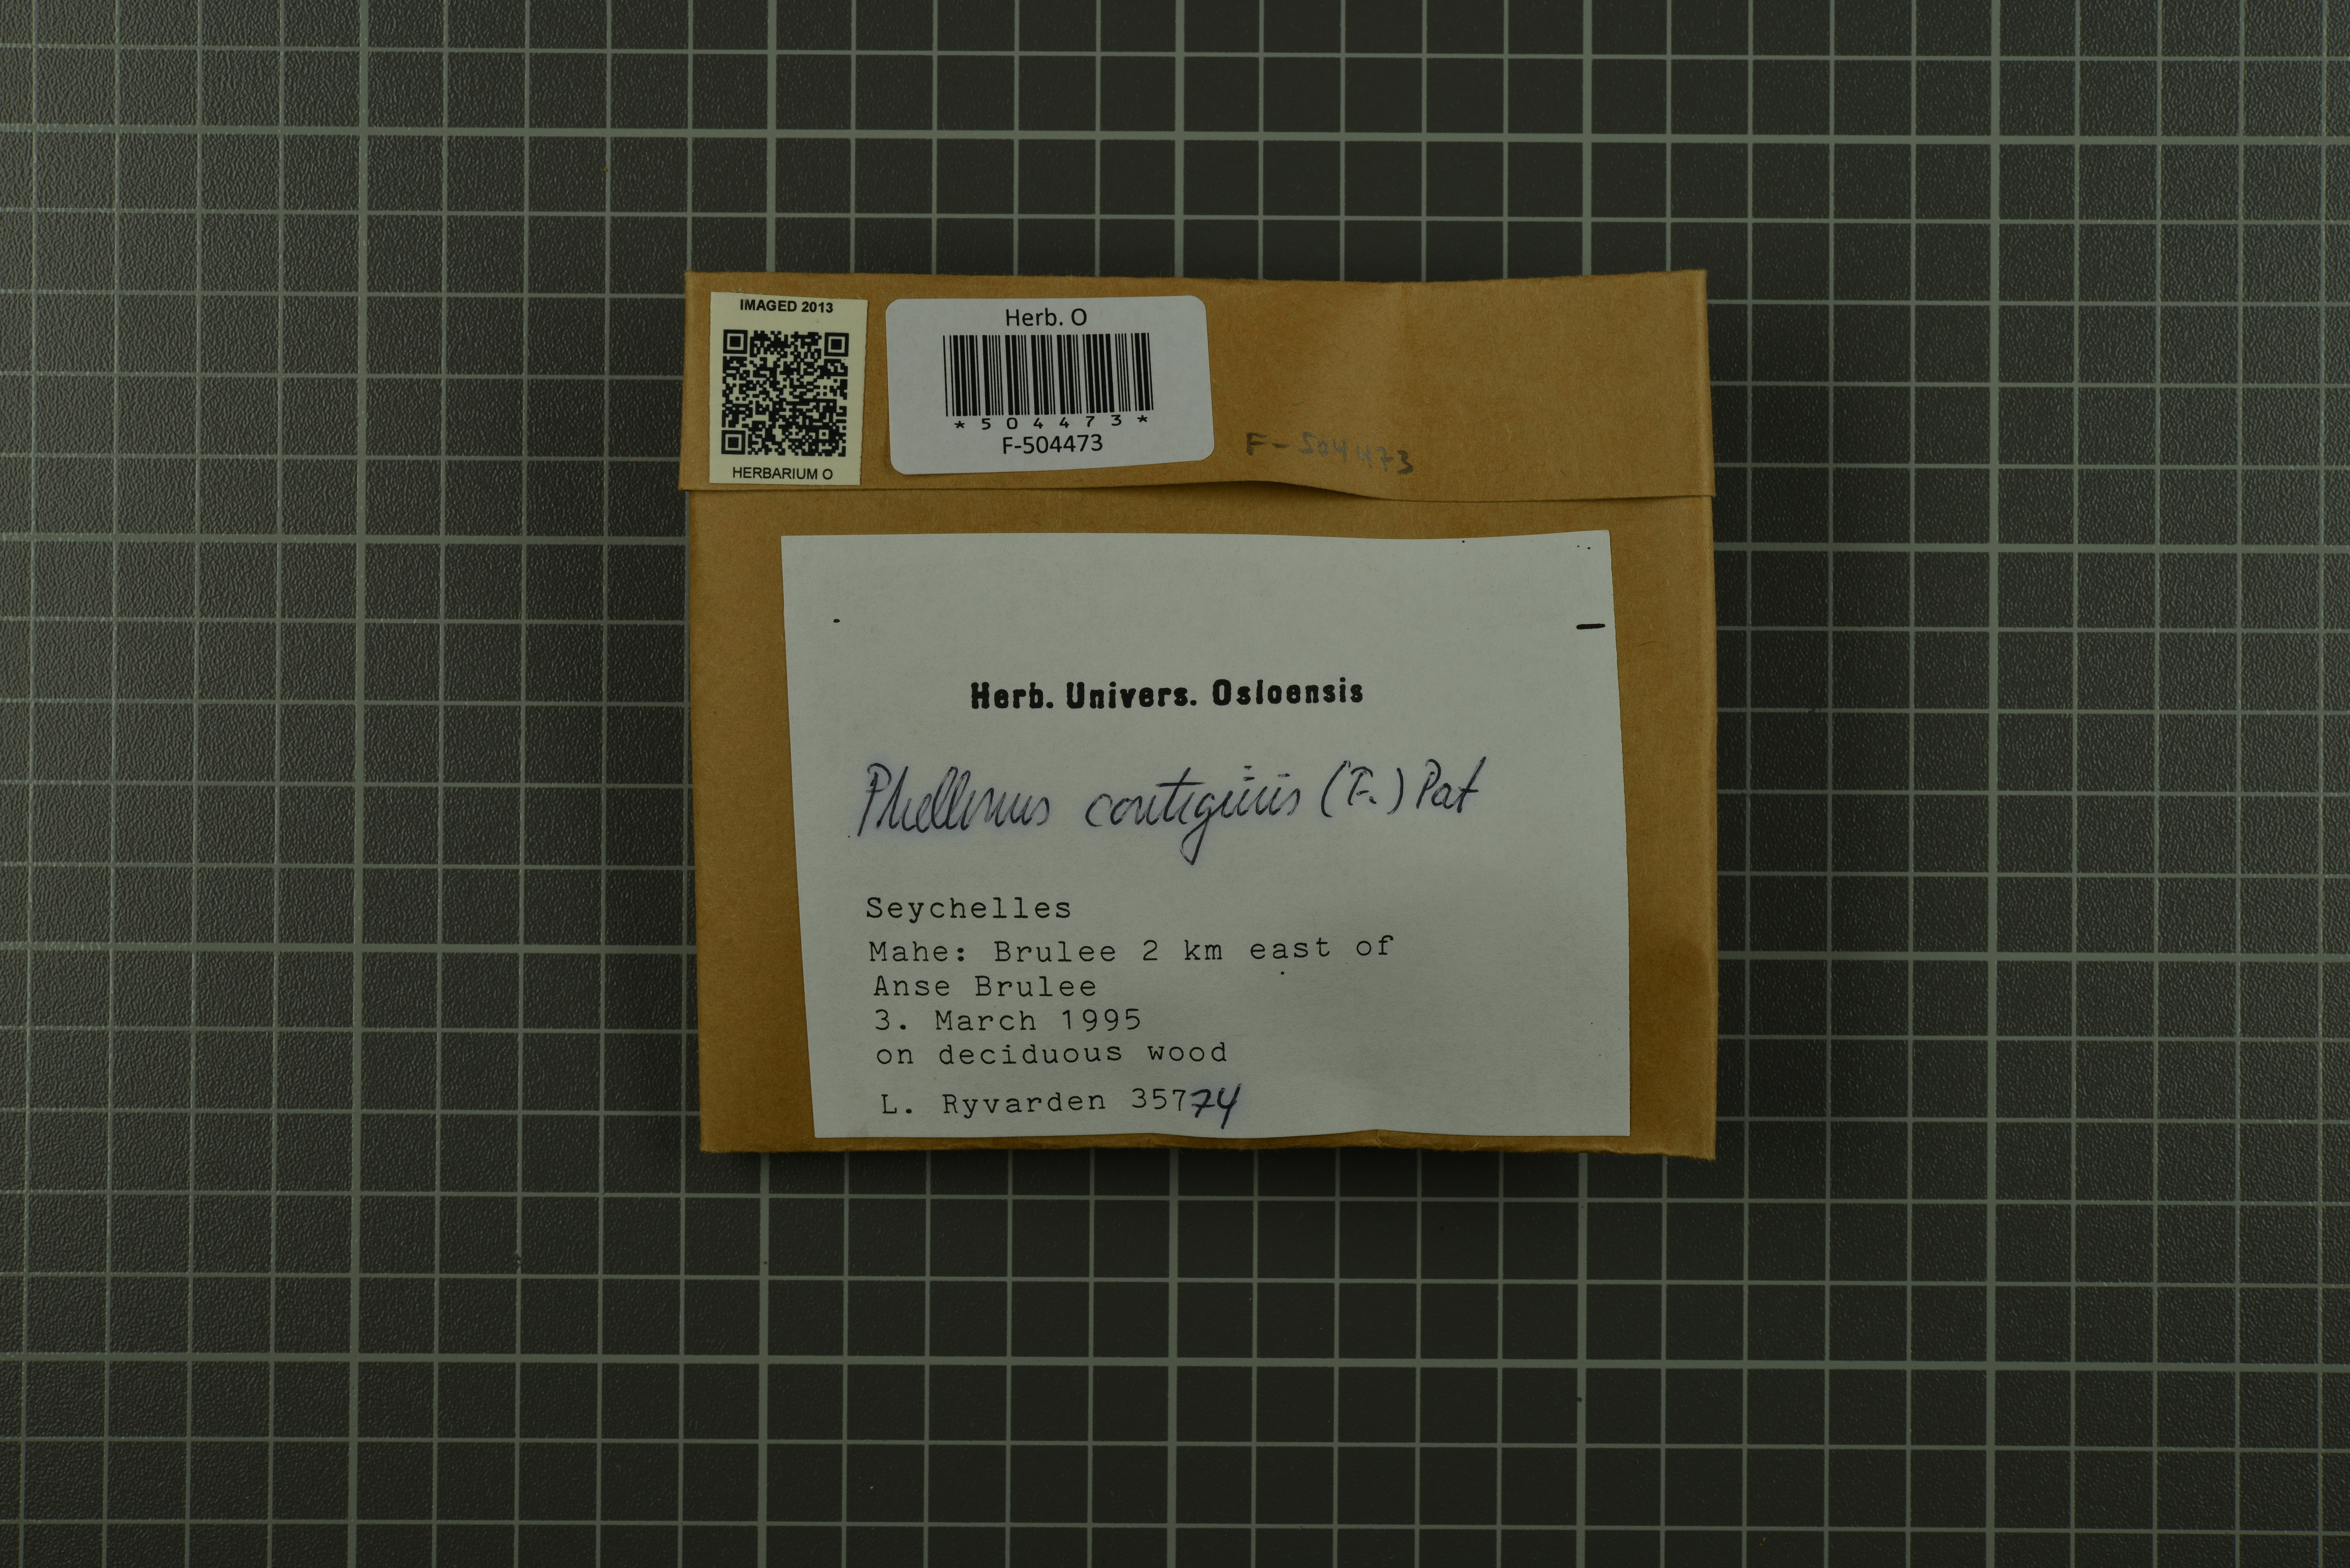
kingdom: Fungi
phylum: Basidiomycota
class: Agaricomycetes
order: Hymenochaetales
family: Hymenochaetaceae
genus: Fuscoporia
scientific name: Fuscoporia contigua
